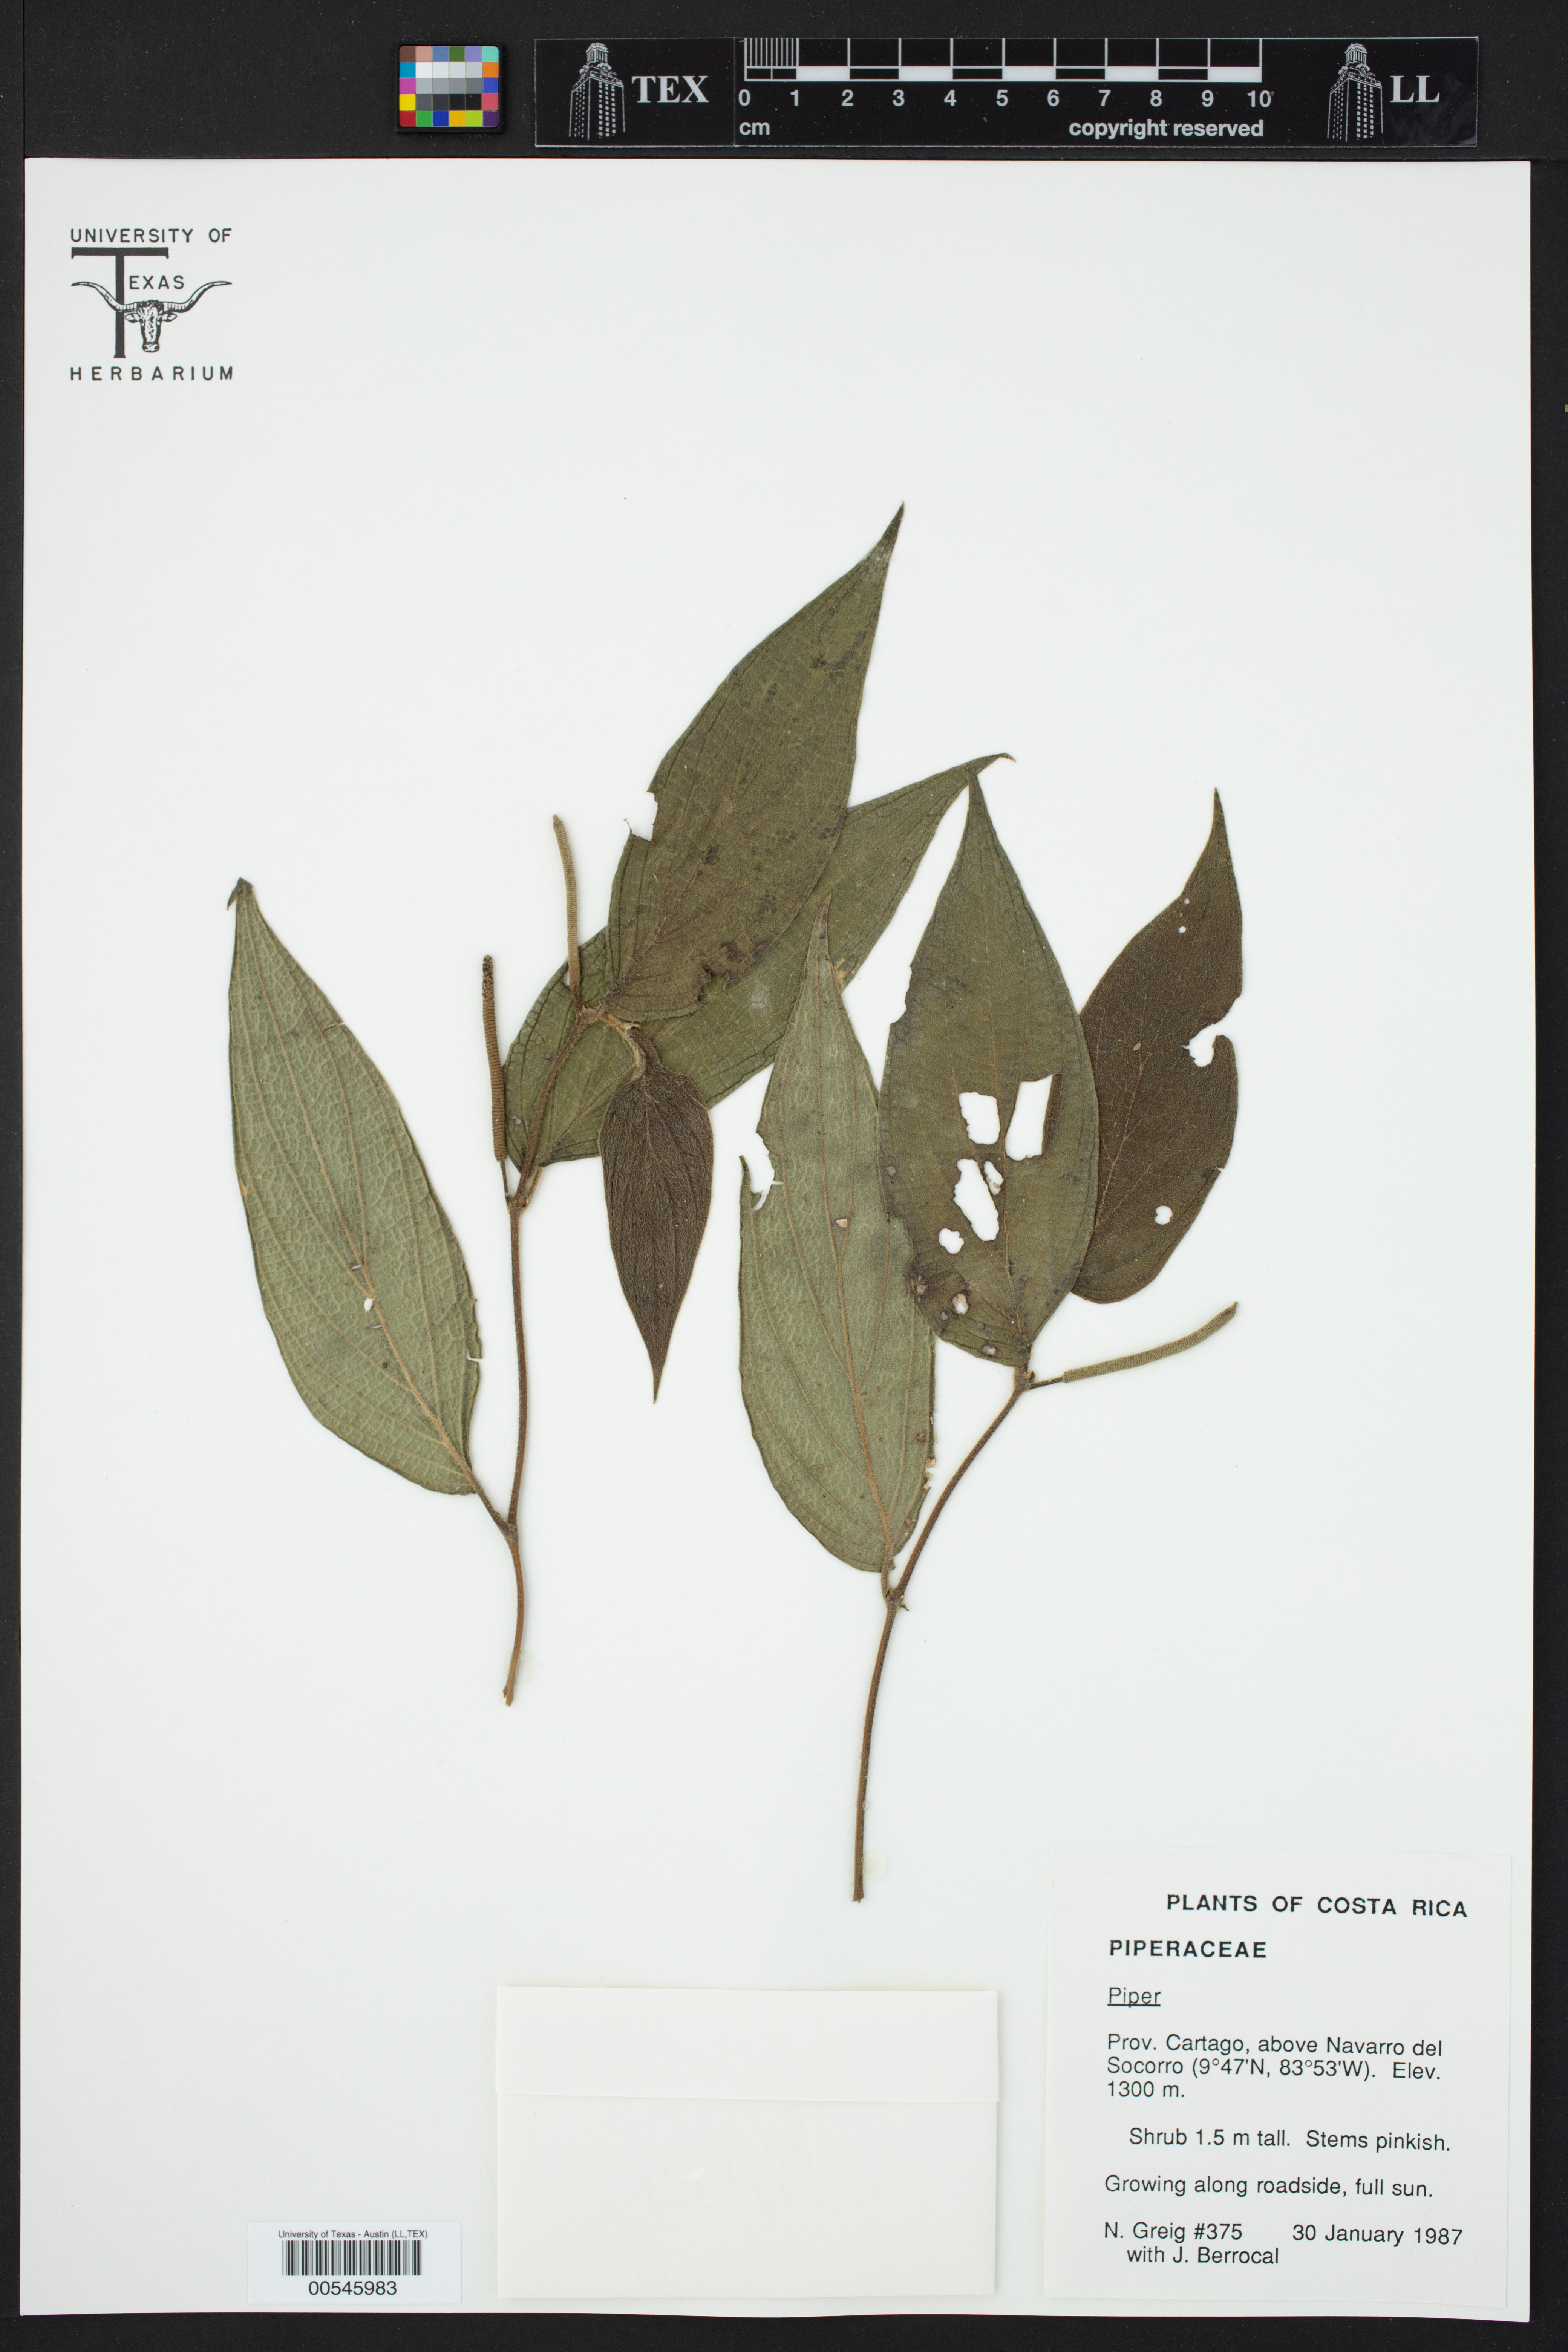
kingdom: Plantae
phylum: Tracheophyta
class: Magnoliopsida
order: Piperales
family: Piperaceae
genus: Piper
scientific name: Piper
